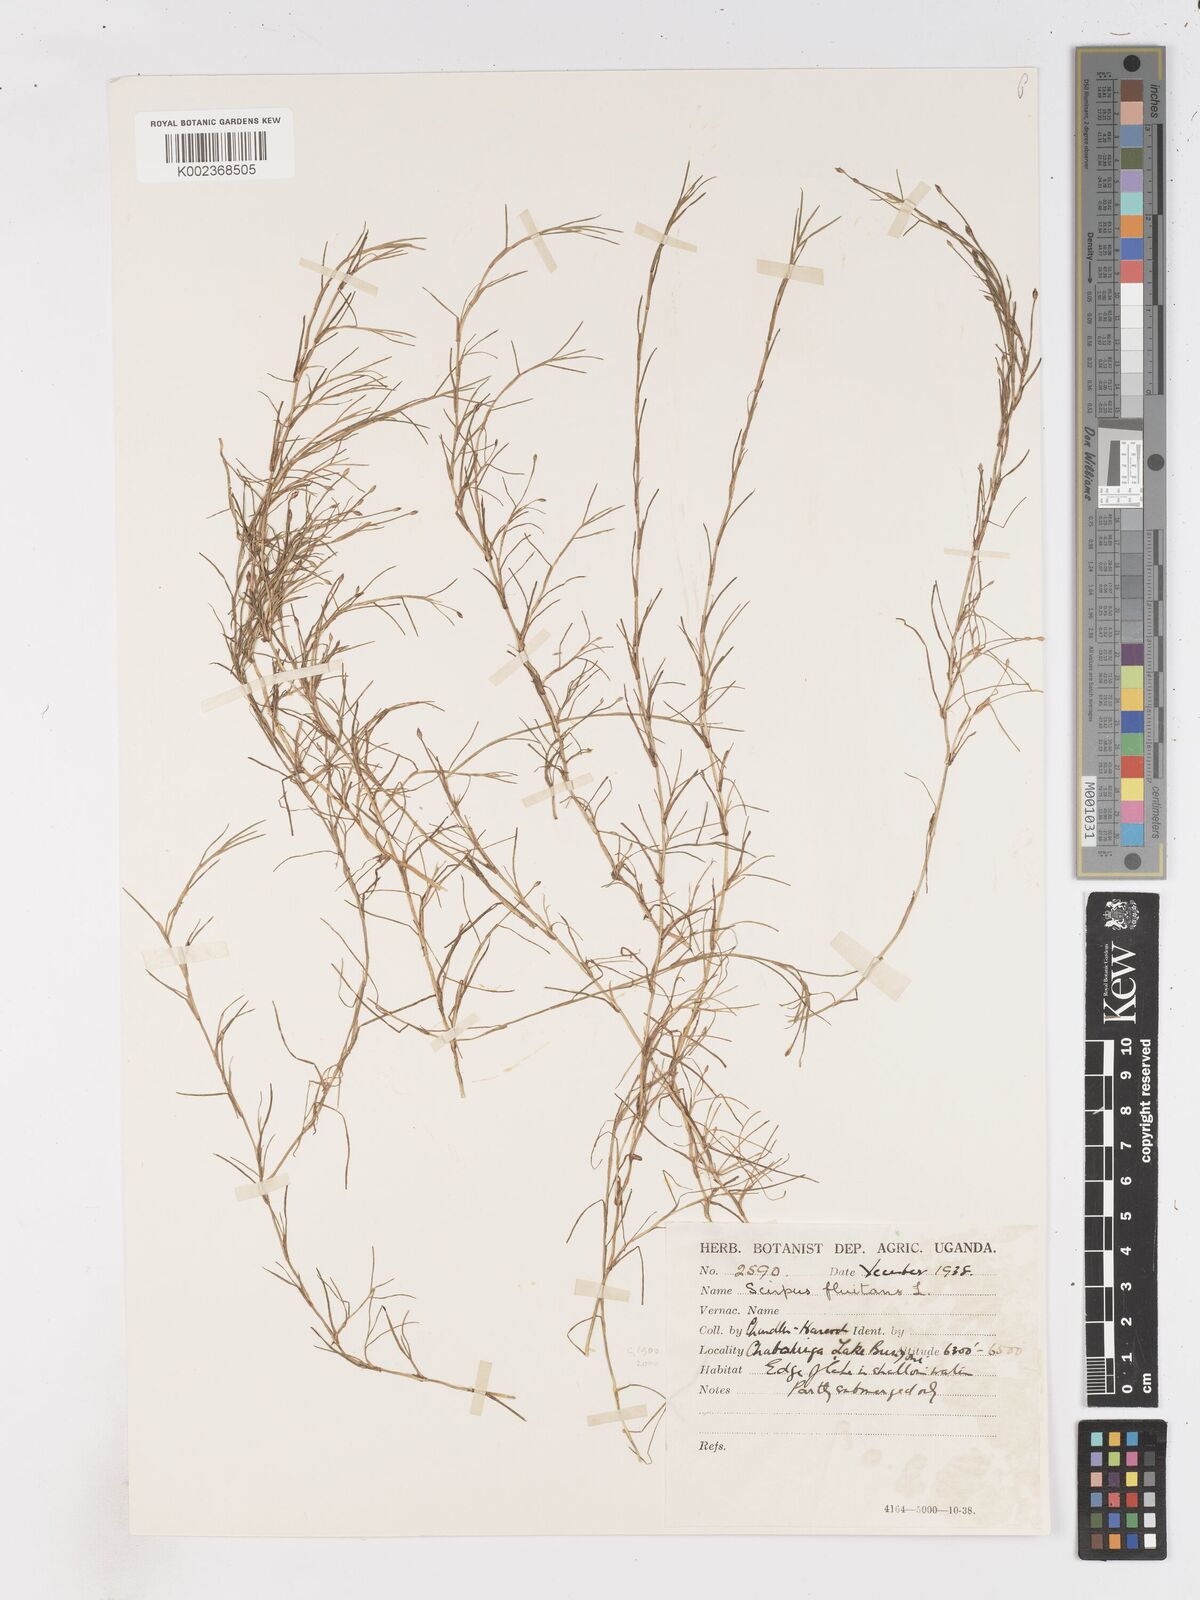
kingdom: Plantae
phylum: Tracheophyta
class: Liliopsida
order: Poales
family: Cyperaceae
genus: Isolepis
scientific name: Isolepis fluitans
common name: Floating club-rush
